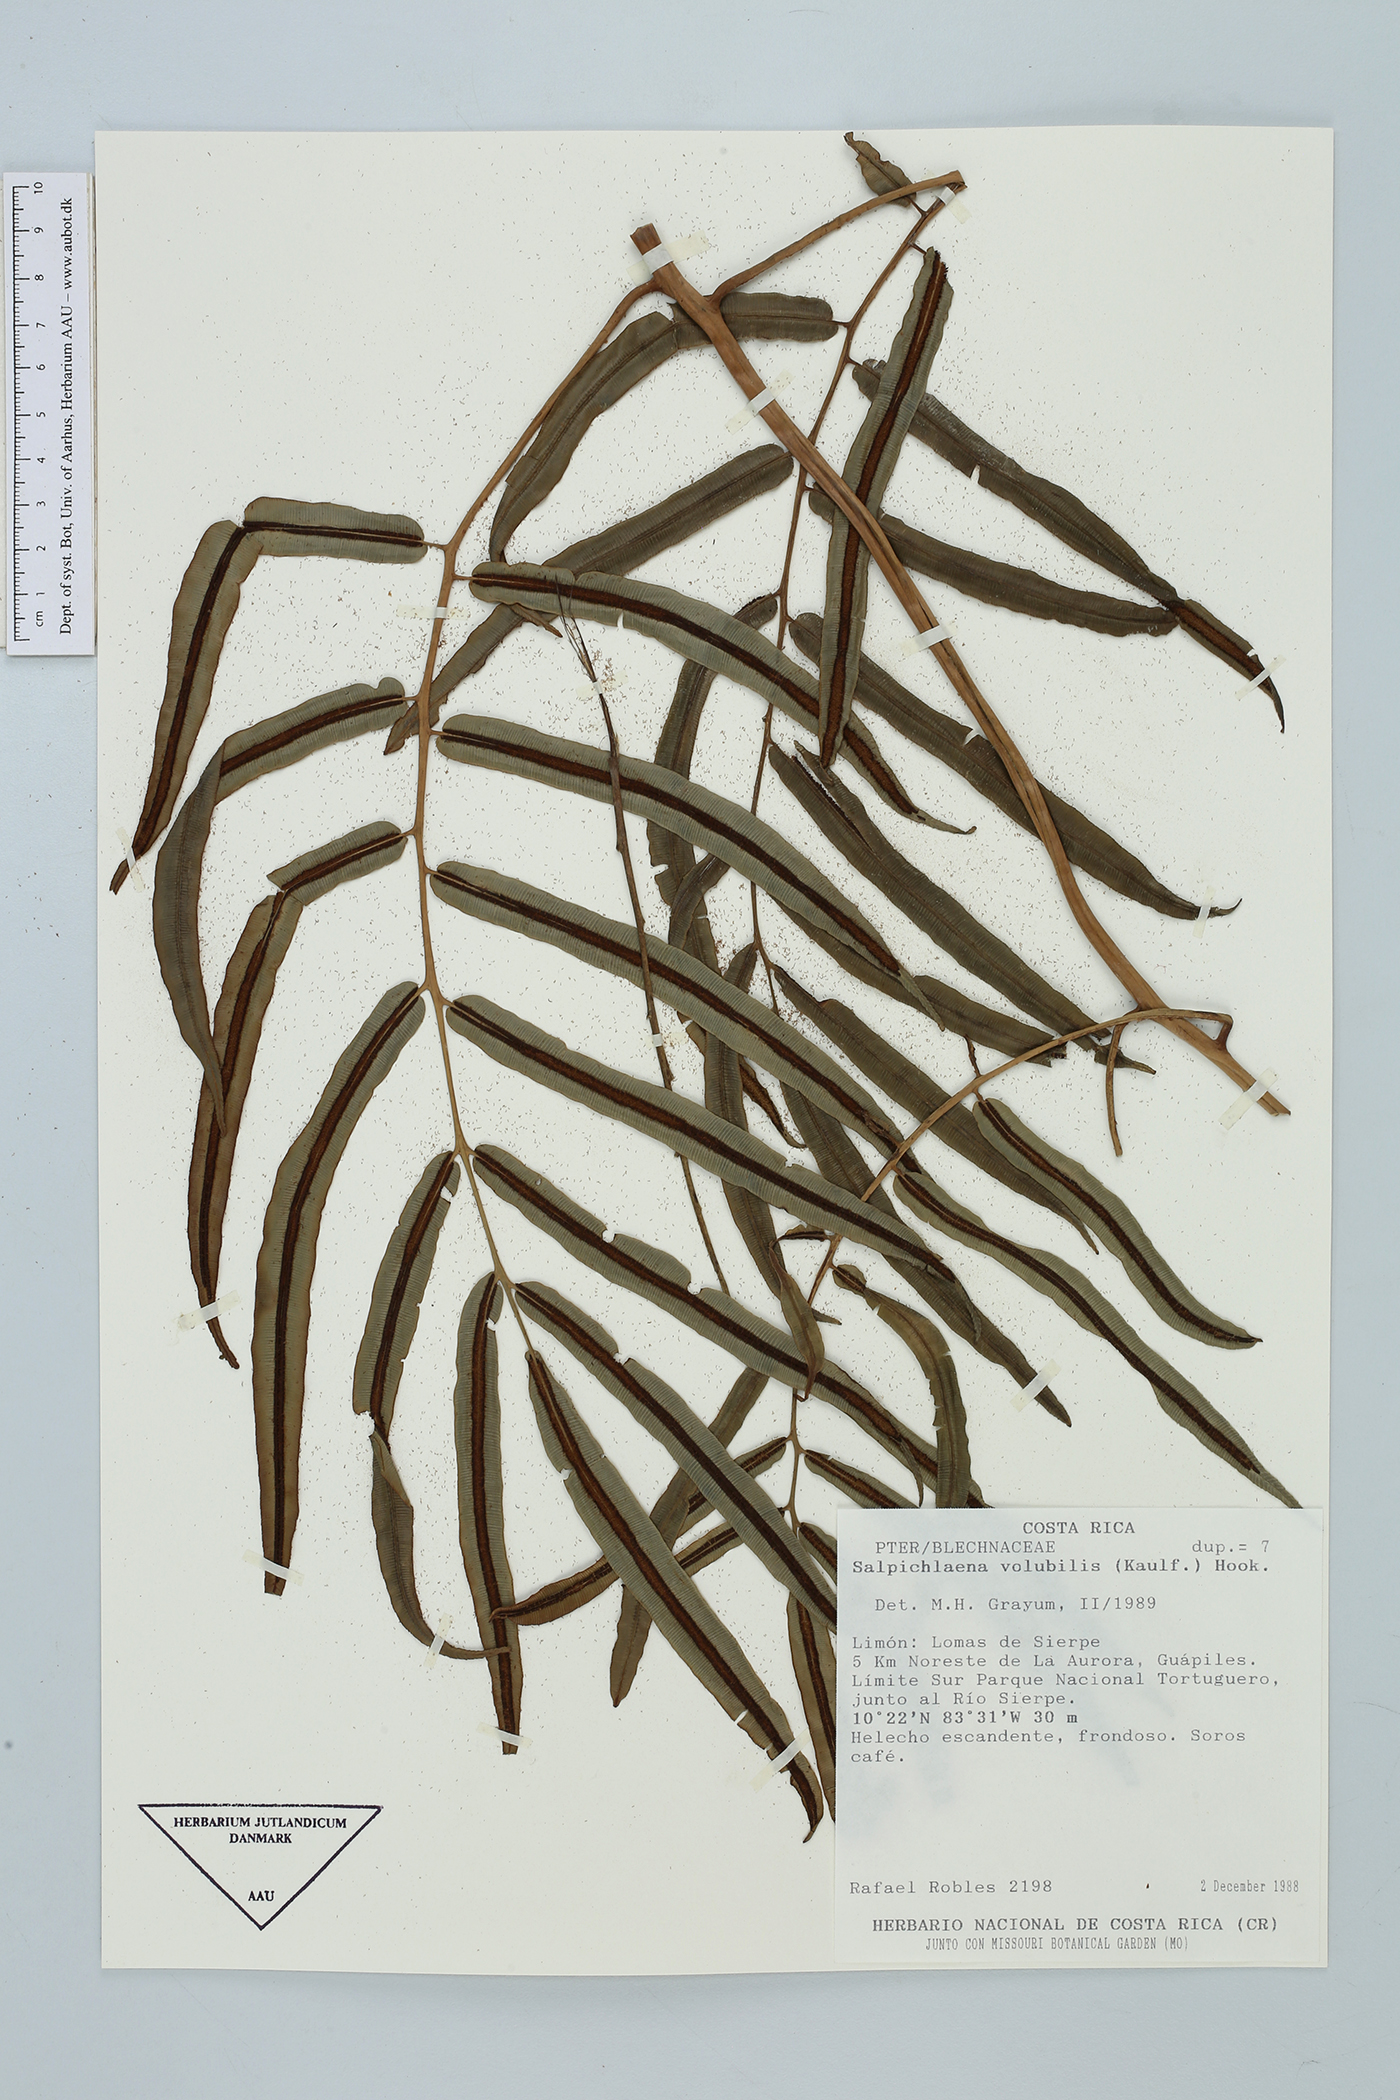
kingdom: Plantae
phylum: Tracheophyta
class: Polypodiopsida
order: Polypodiales
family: Blechnaceae
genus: Salpichlaena
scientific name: Salpichlaena papyrus
